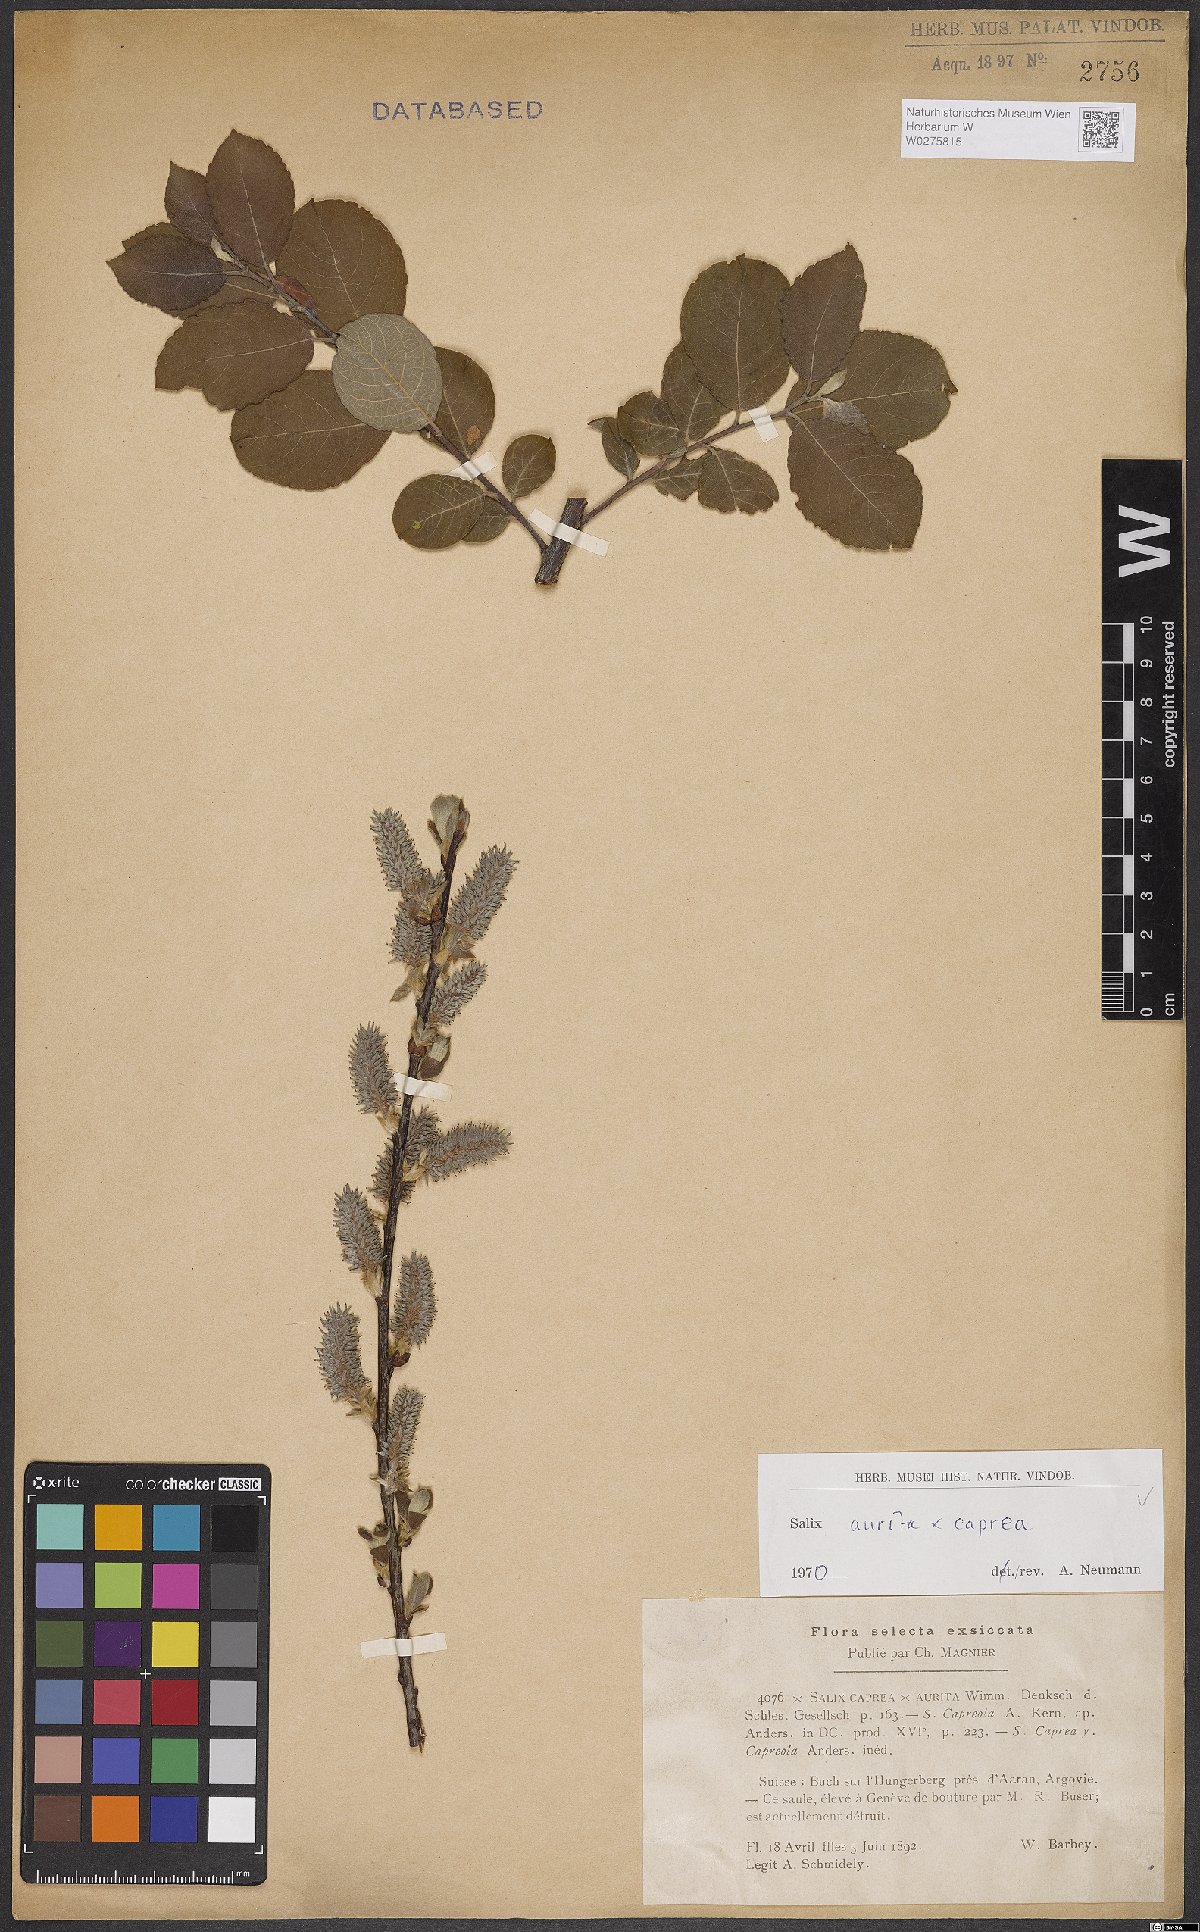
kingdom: Plantae
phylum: Tracheophyta
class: Magnoliopsida
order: Malpighiales
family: Salicaceae
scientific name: Salicaceae
